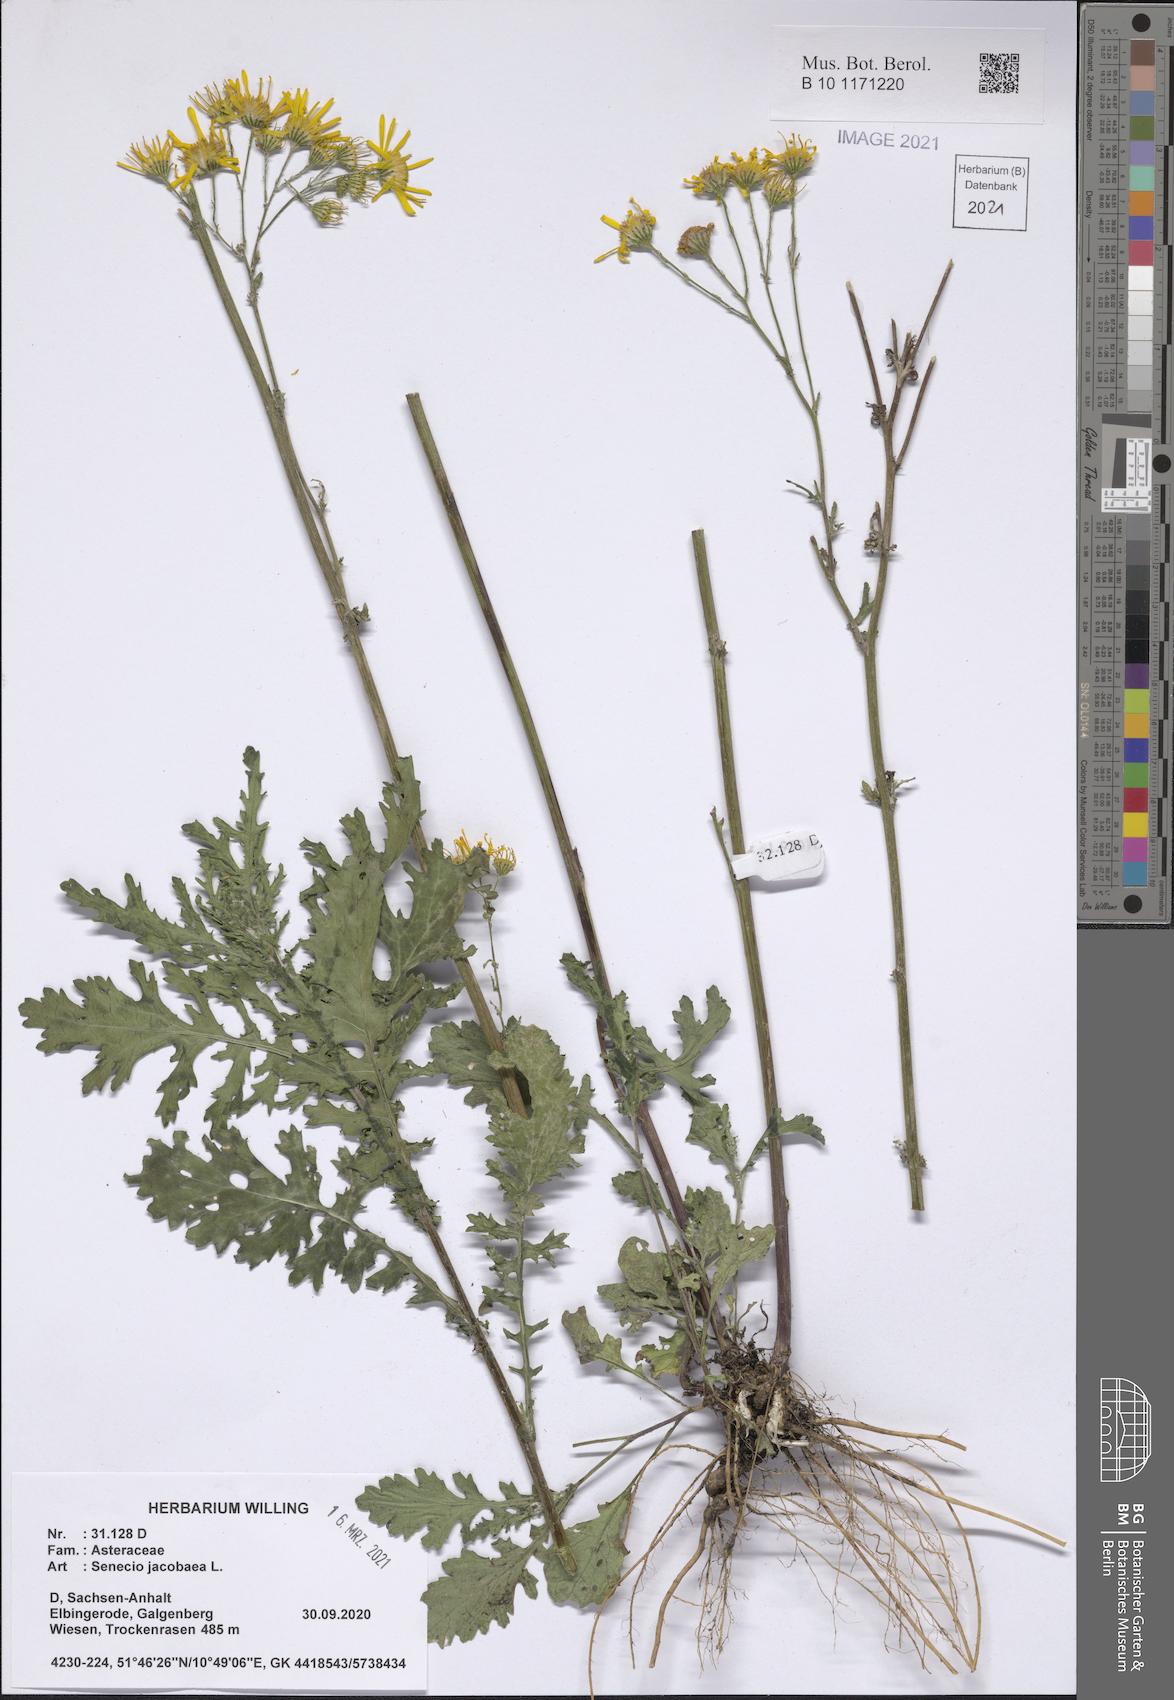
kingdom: Plantae
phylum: Tracheophyta
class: Magnoliopsida
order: Asterales
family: Asteraceae
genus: Jacobaea
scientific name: Jacobaea vulgaris
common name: Stinking willie
